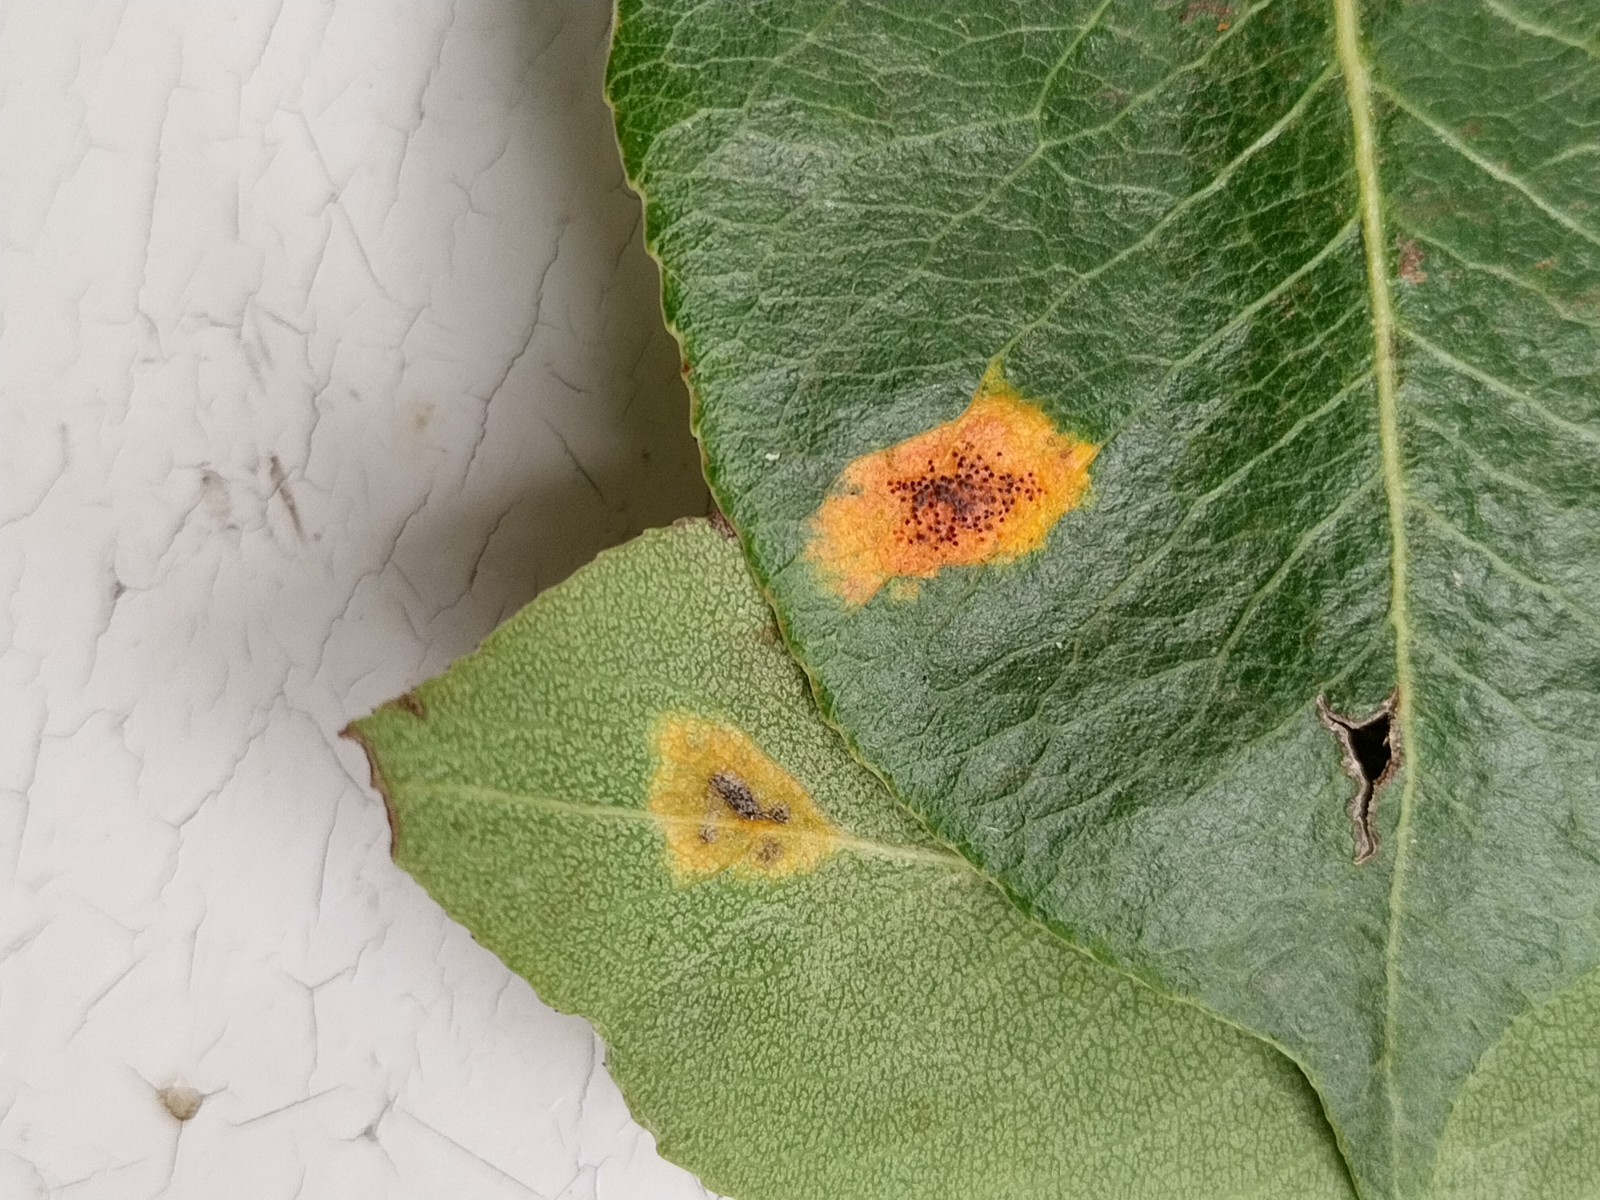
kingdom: Fungi
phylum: Basidiomycota
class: Pucciniomycetes
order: Pucciniales
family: Gymnosporangiaceae
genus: Gymnosporangium
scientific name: Gymnosporangium sabinae
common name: pæregitter-bævrerust
